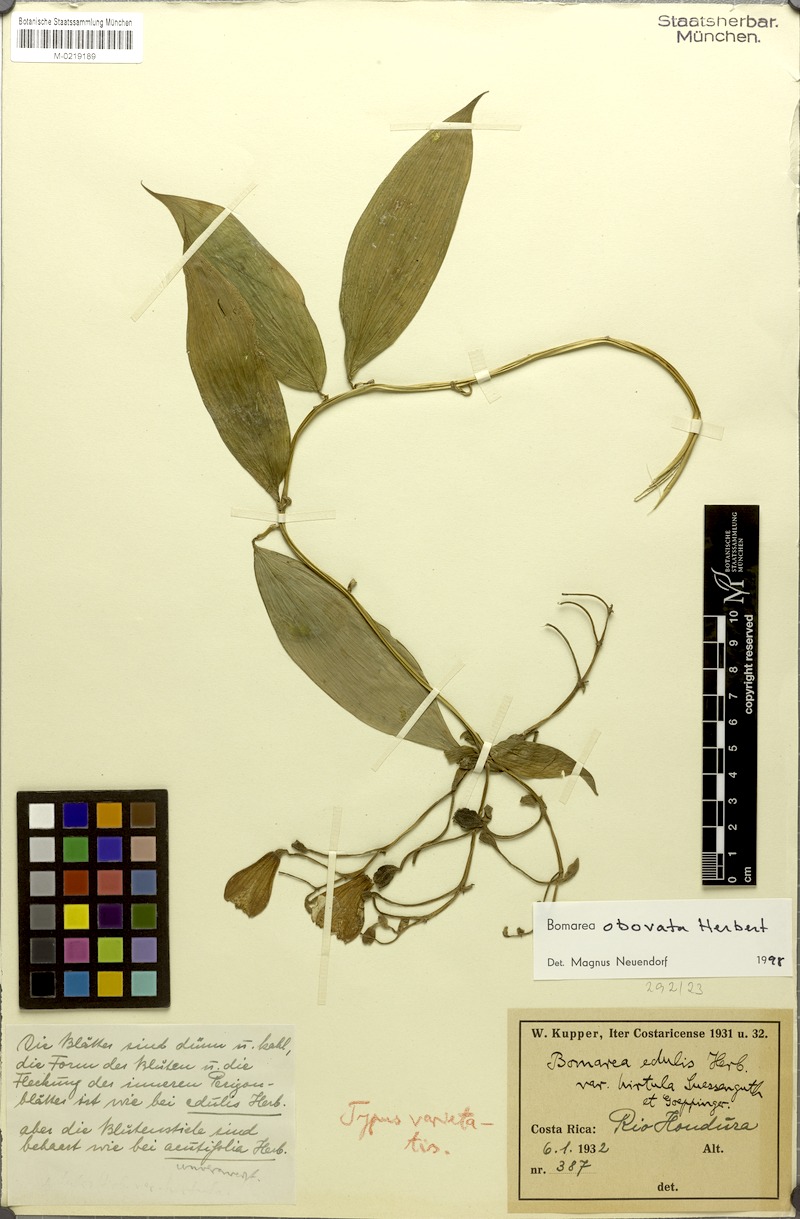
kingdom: Plantae
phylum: Tracheophyta
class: Liliopsida
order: Liliales
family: Alstroemeriaceae
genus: Bomarea
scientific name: Bomarea edulis
